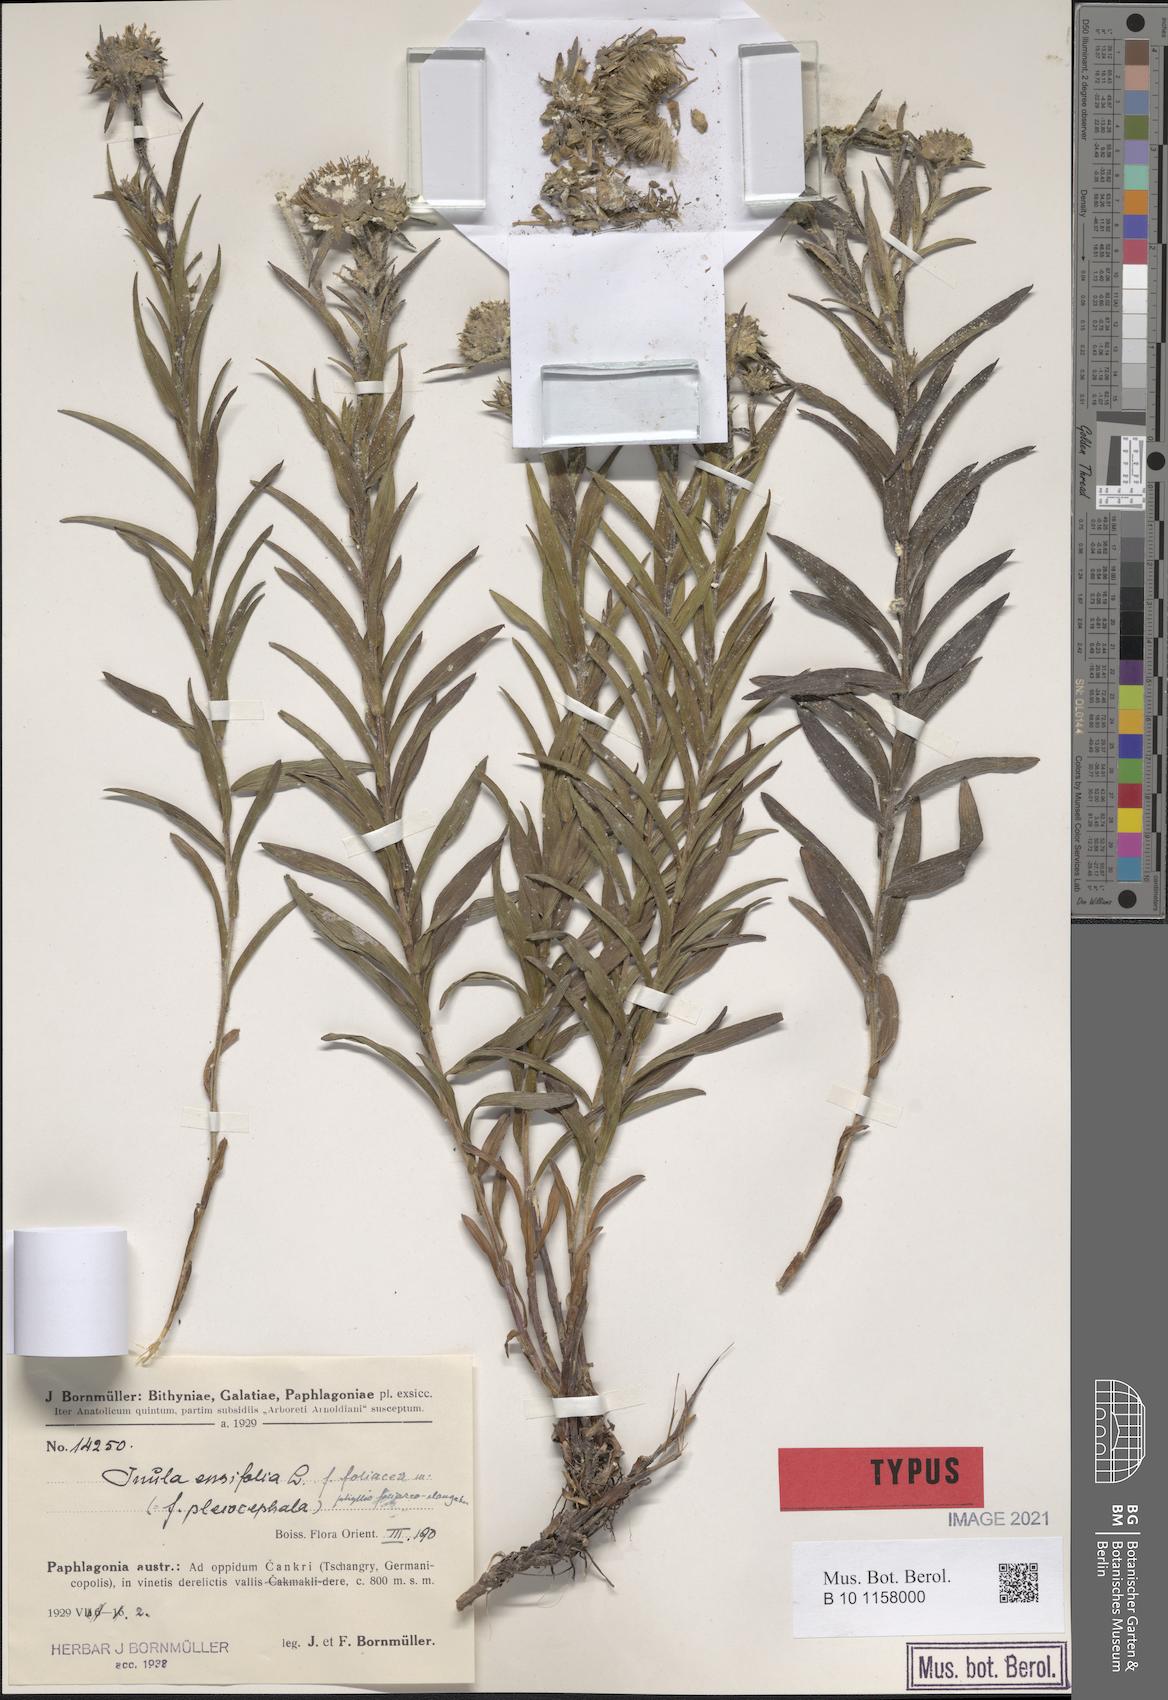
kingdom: Plantae
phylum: Tracheophyta
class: Magnoliopsida
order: Asterales
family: Asteraceae
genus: Pentanema
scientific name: Pentanema ensifolium
